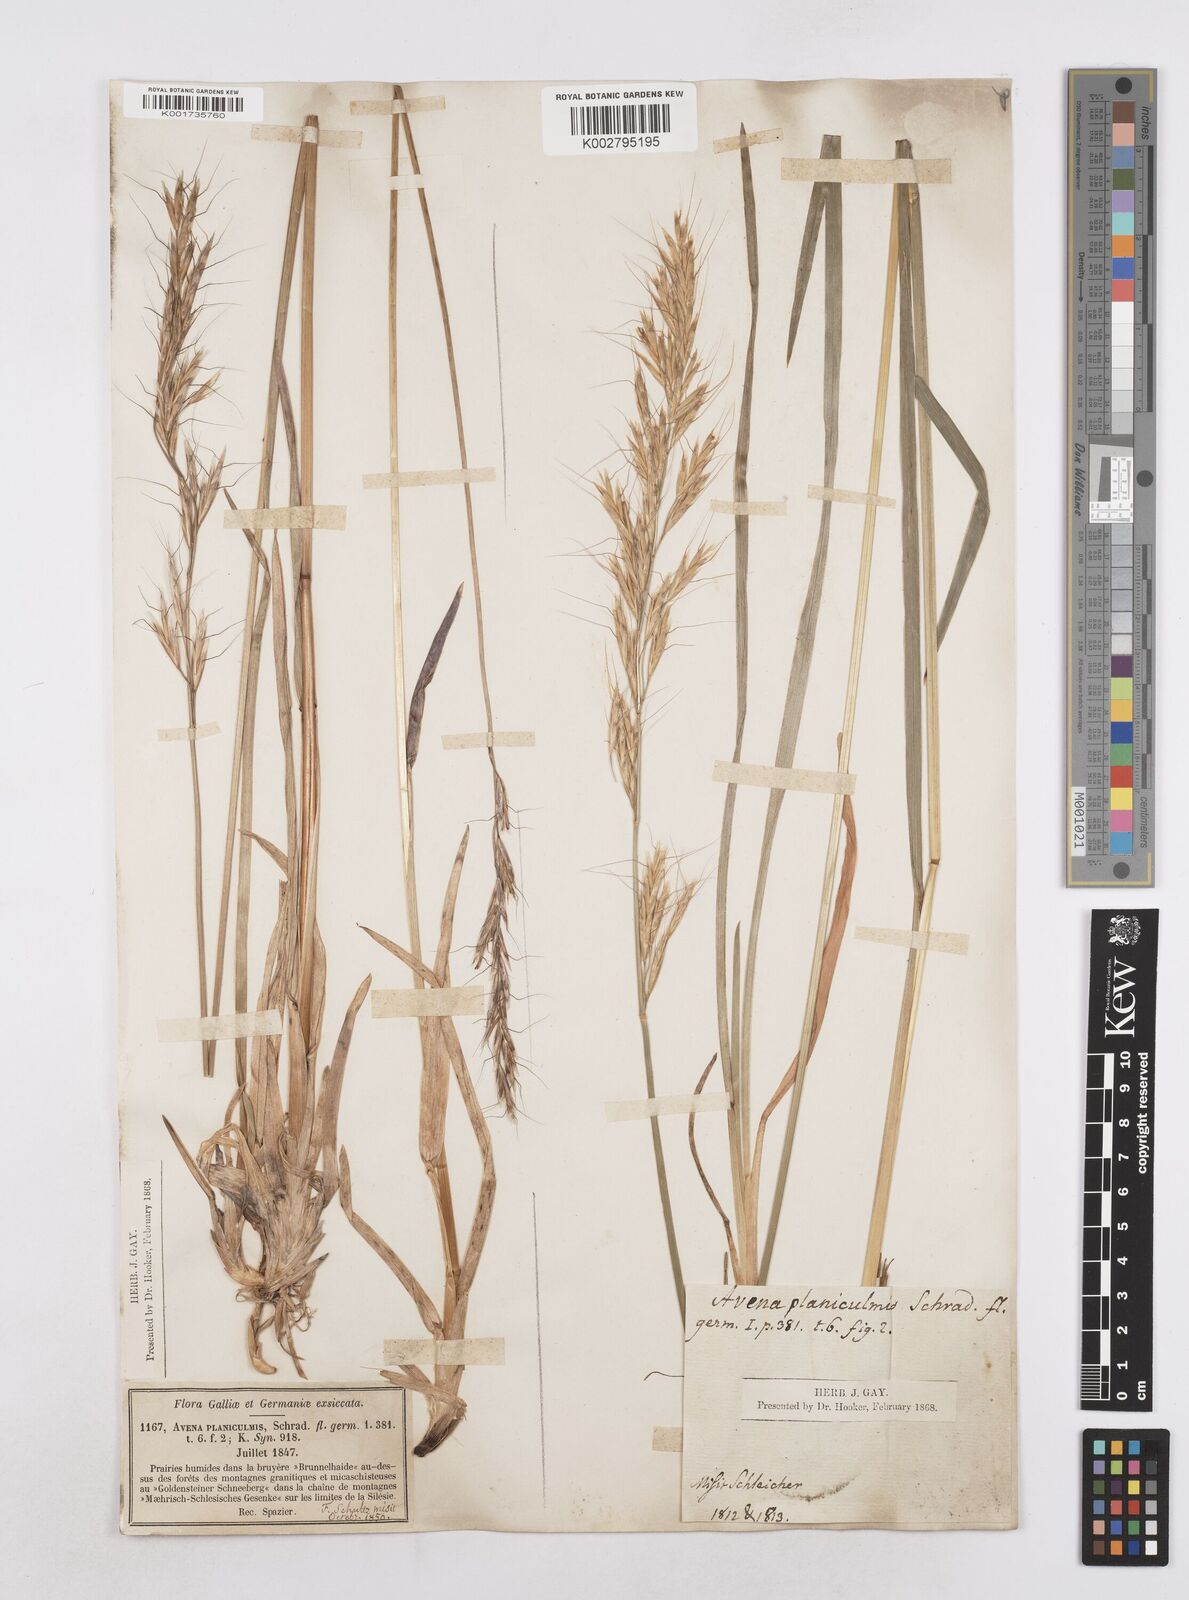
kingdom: Plantae
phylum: Tracheophyta
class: Liliopsida
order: Poales
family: Poaceae
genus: Helictochloa
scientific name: Helictochloa planiculmis
